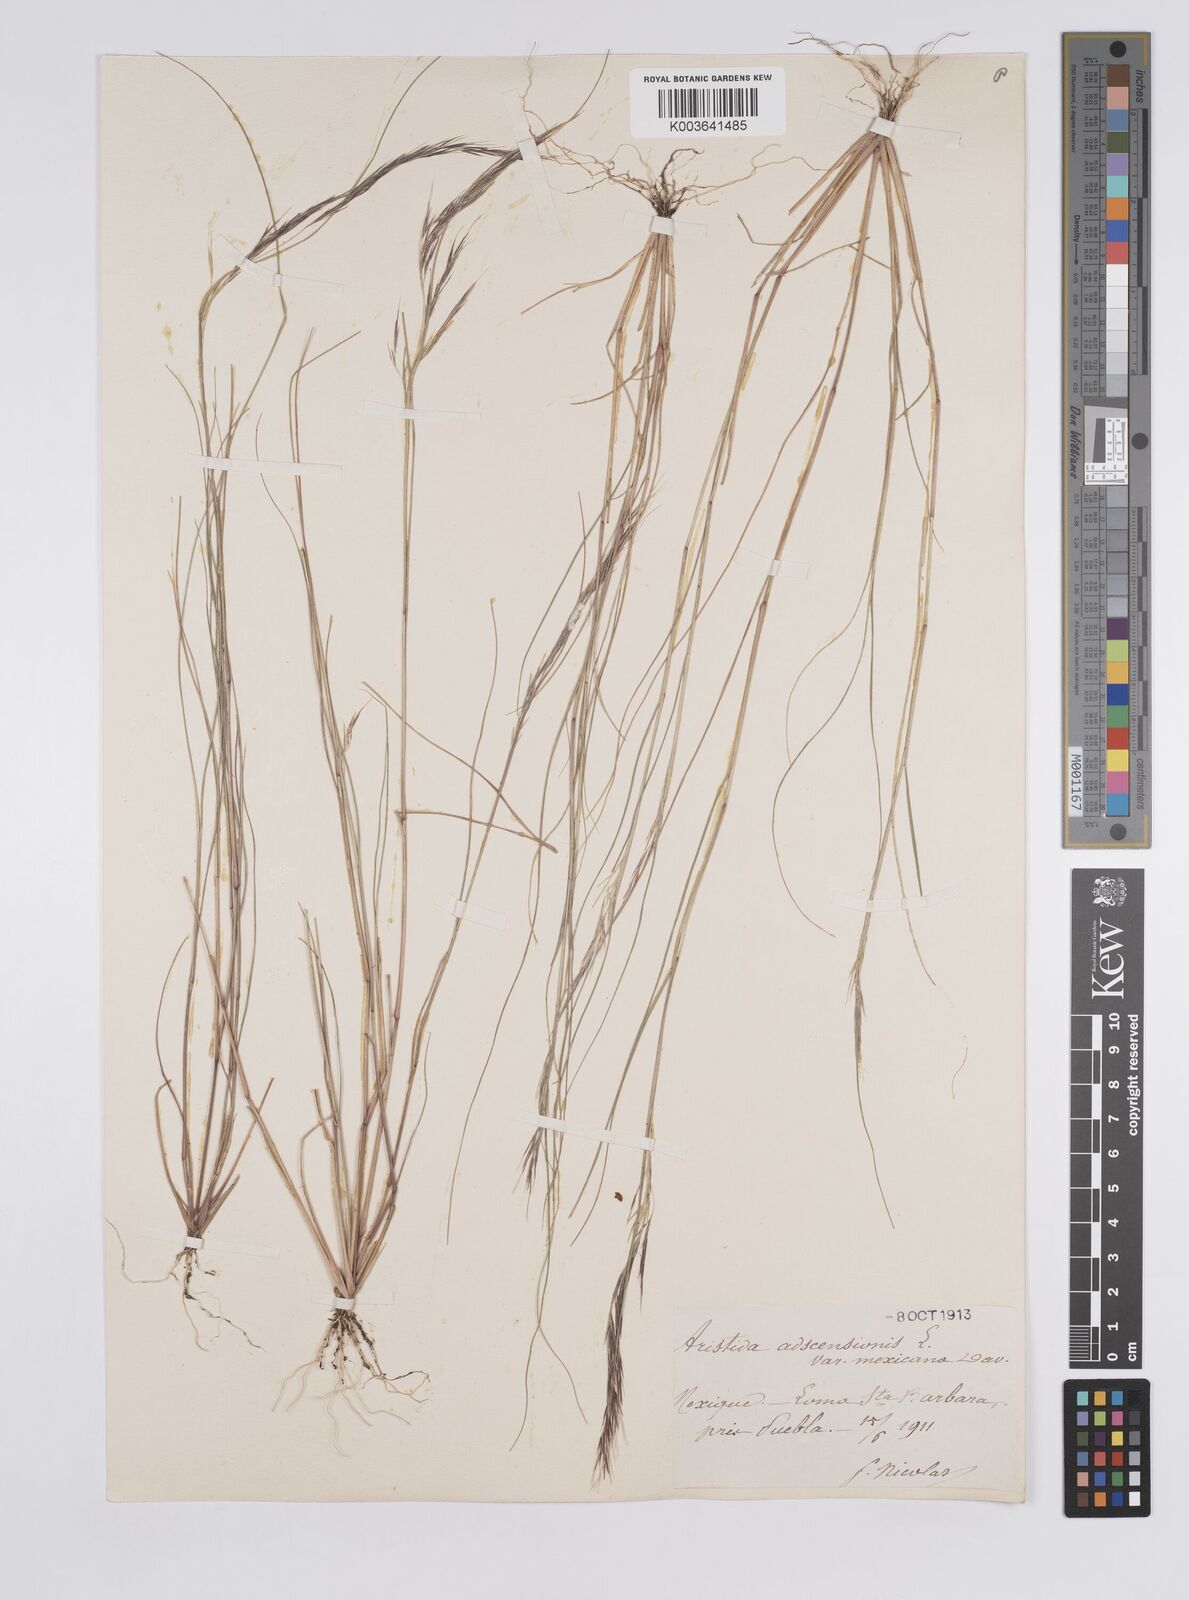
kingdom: Plantae
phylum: Tracheophyta
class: Liliopsida
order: Poales
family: Poaceae
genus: Aristida
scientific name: Aristida adscensionis
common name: Sixweeks threeawn
